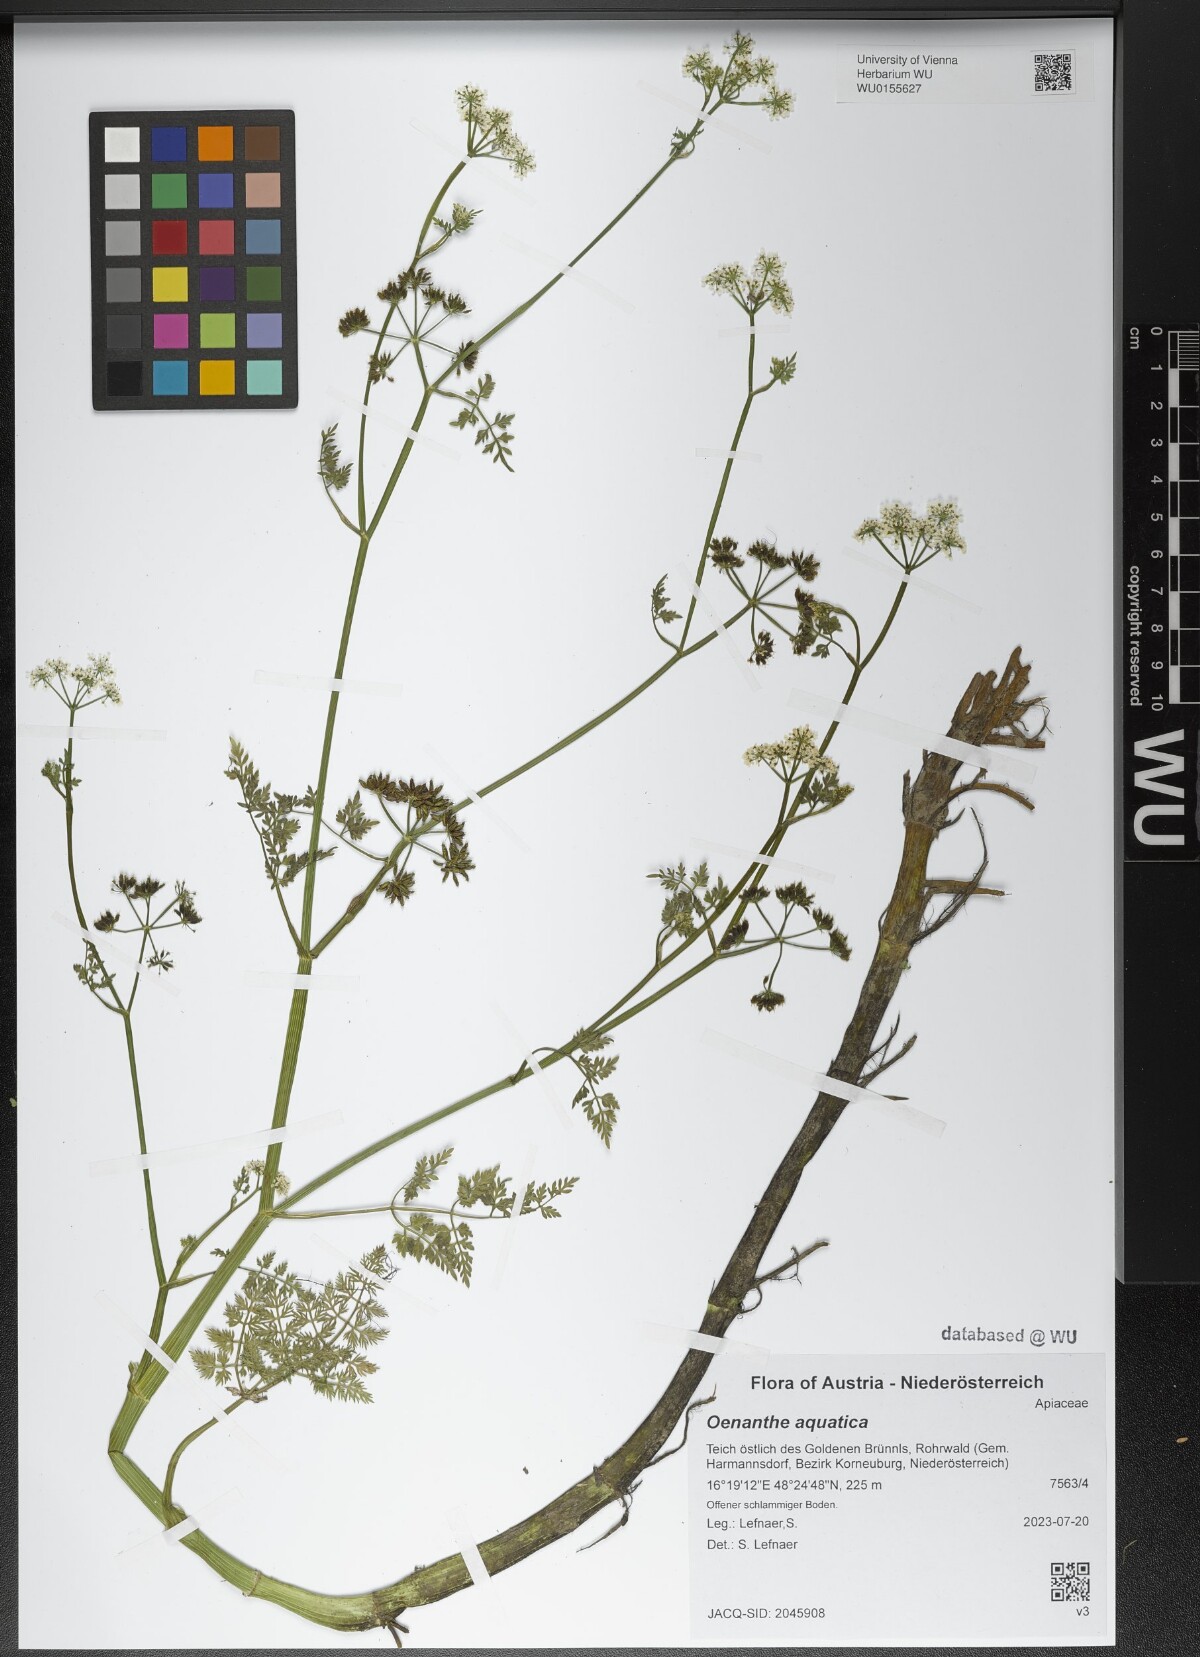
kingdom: Plantae
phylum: Tracheophyta
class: Magnoliopsida
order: Apiales
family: Apiaceae
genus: Oenanthe
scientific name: Oenanthe aquatica
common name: Fine-leaved water-dropwort
